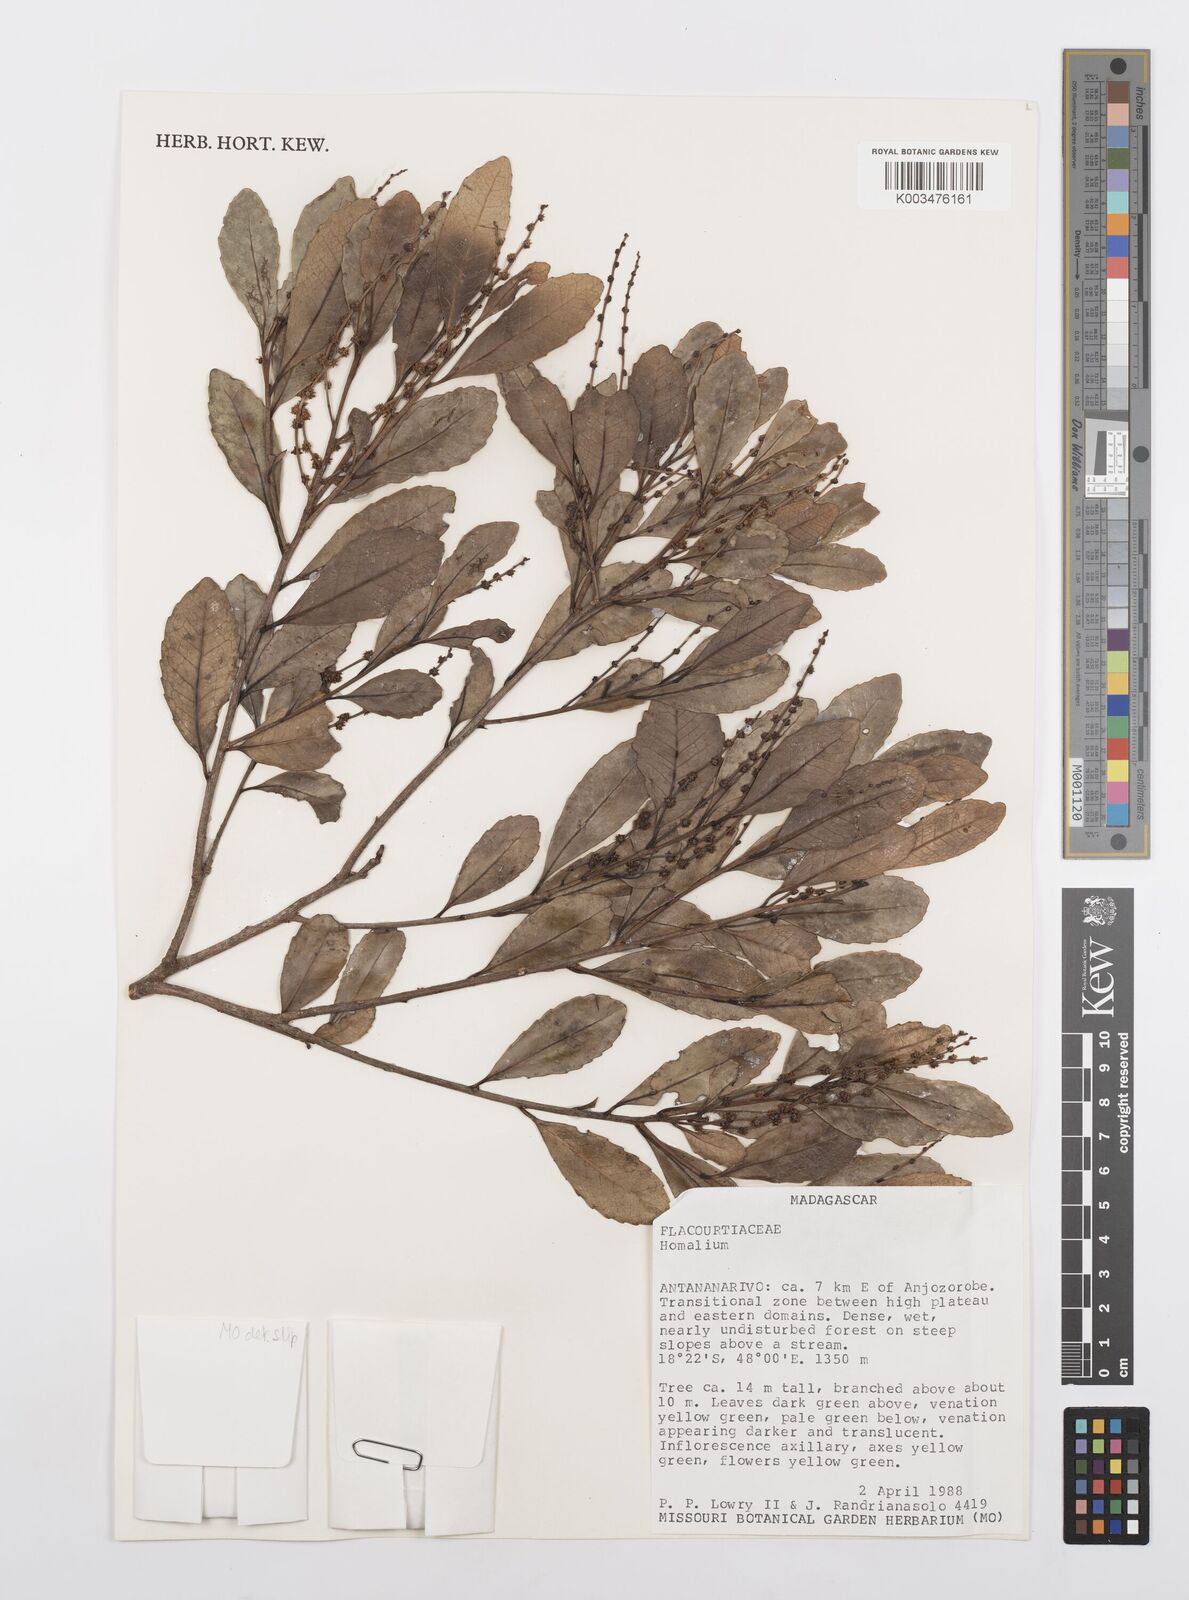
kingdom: Plantae
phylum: Tracheophyta
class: Magnoliopsida
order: Malpighiales
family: Salicaceae
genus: Homalium
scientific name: Homalium
